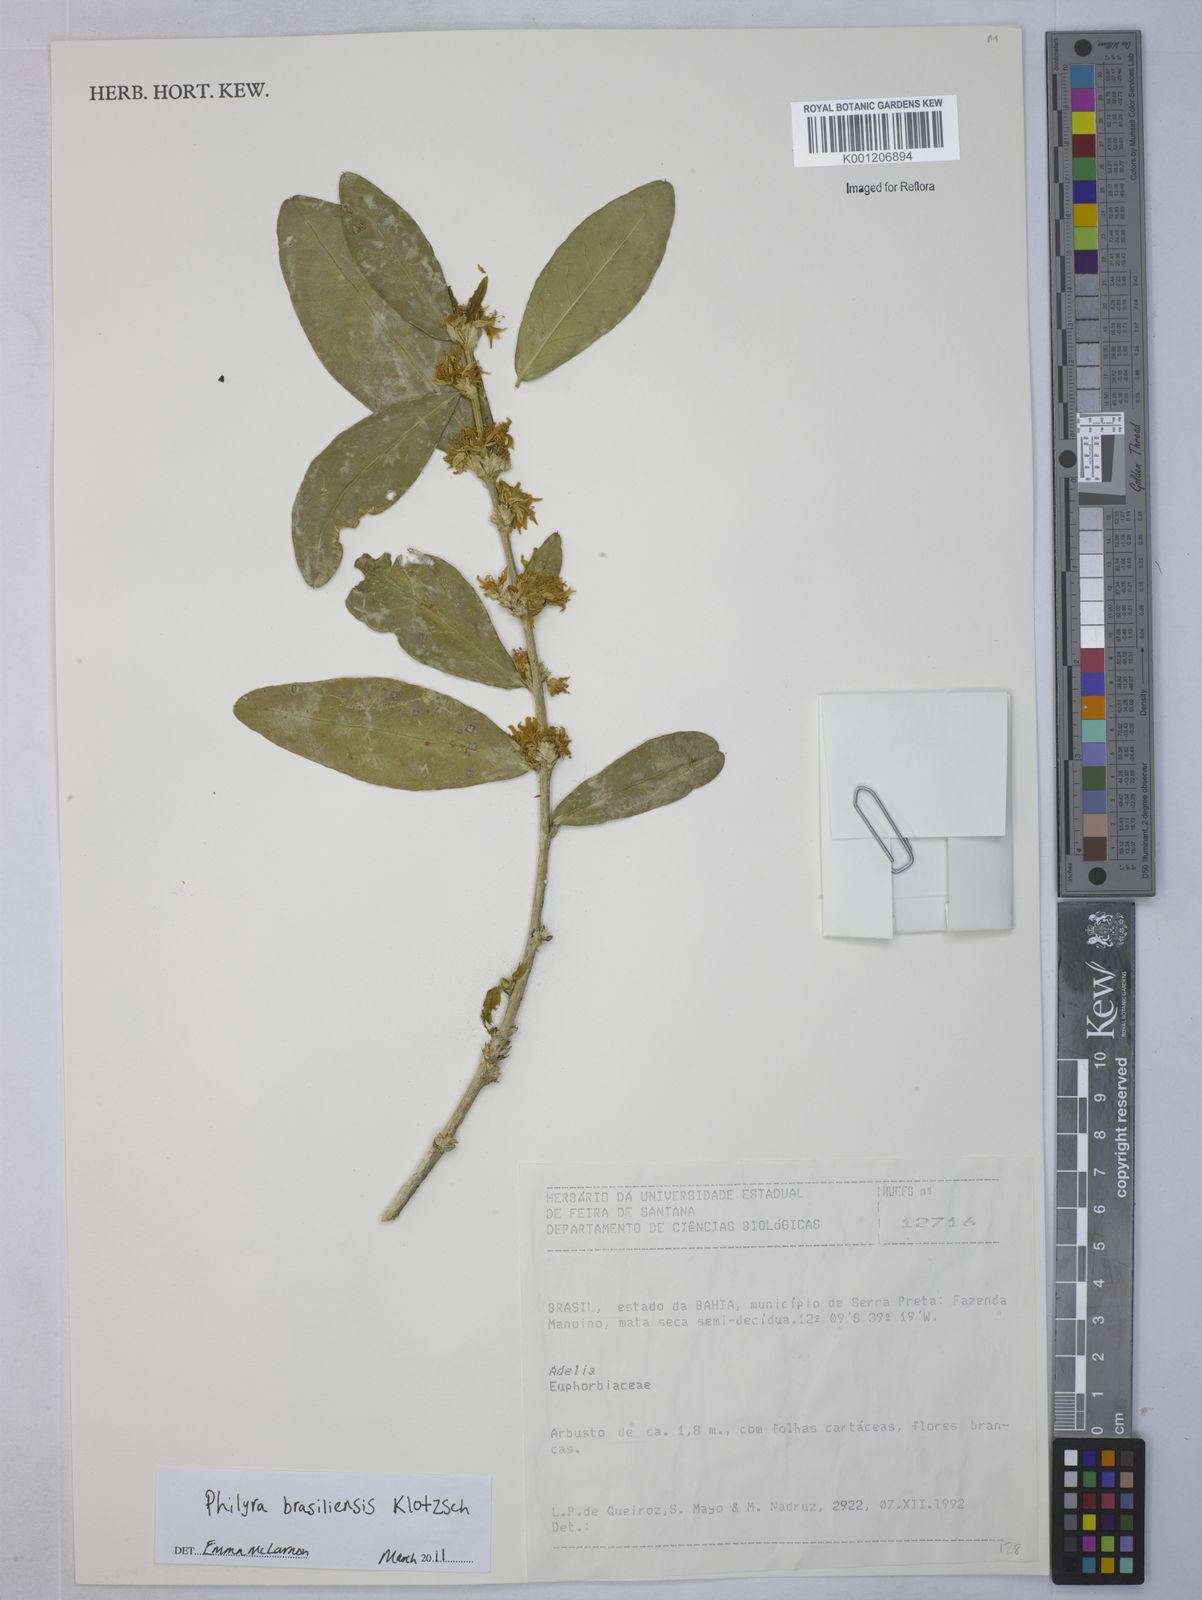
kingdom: Plantae
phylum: Tracheophyta
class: Magnoliopsida
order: Malpighiales
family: Euphorbiaceae
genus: Philyra
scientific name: Philyra brasiliensis
